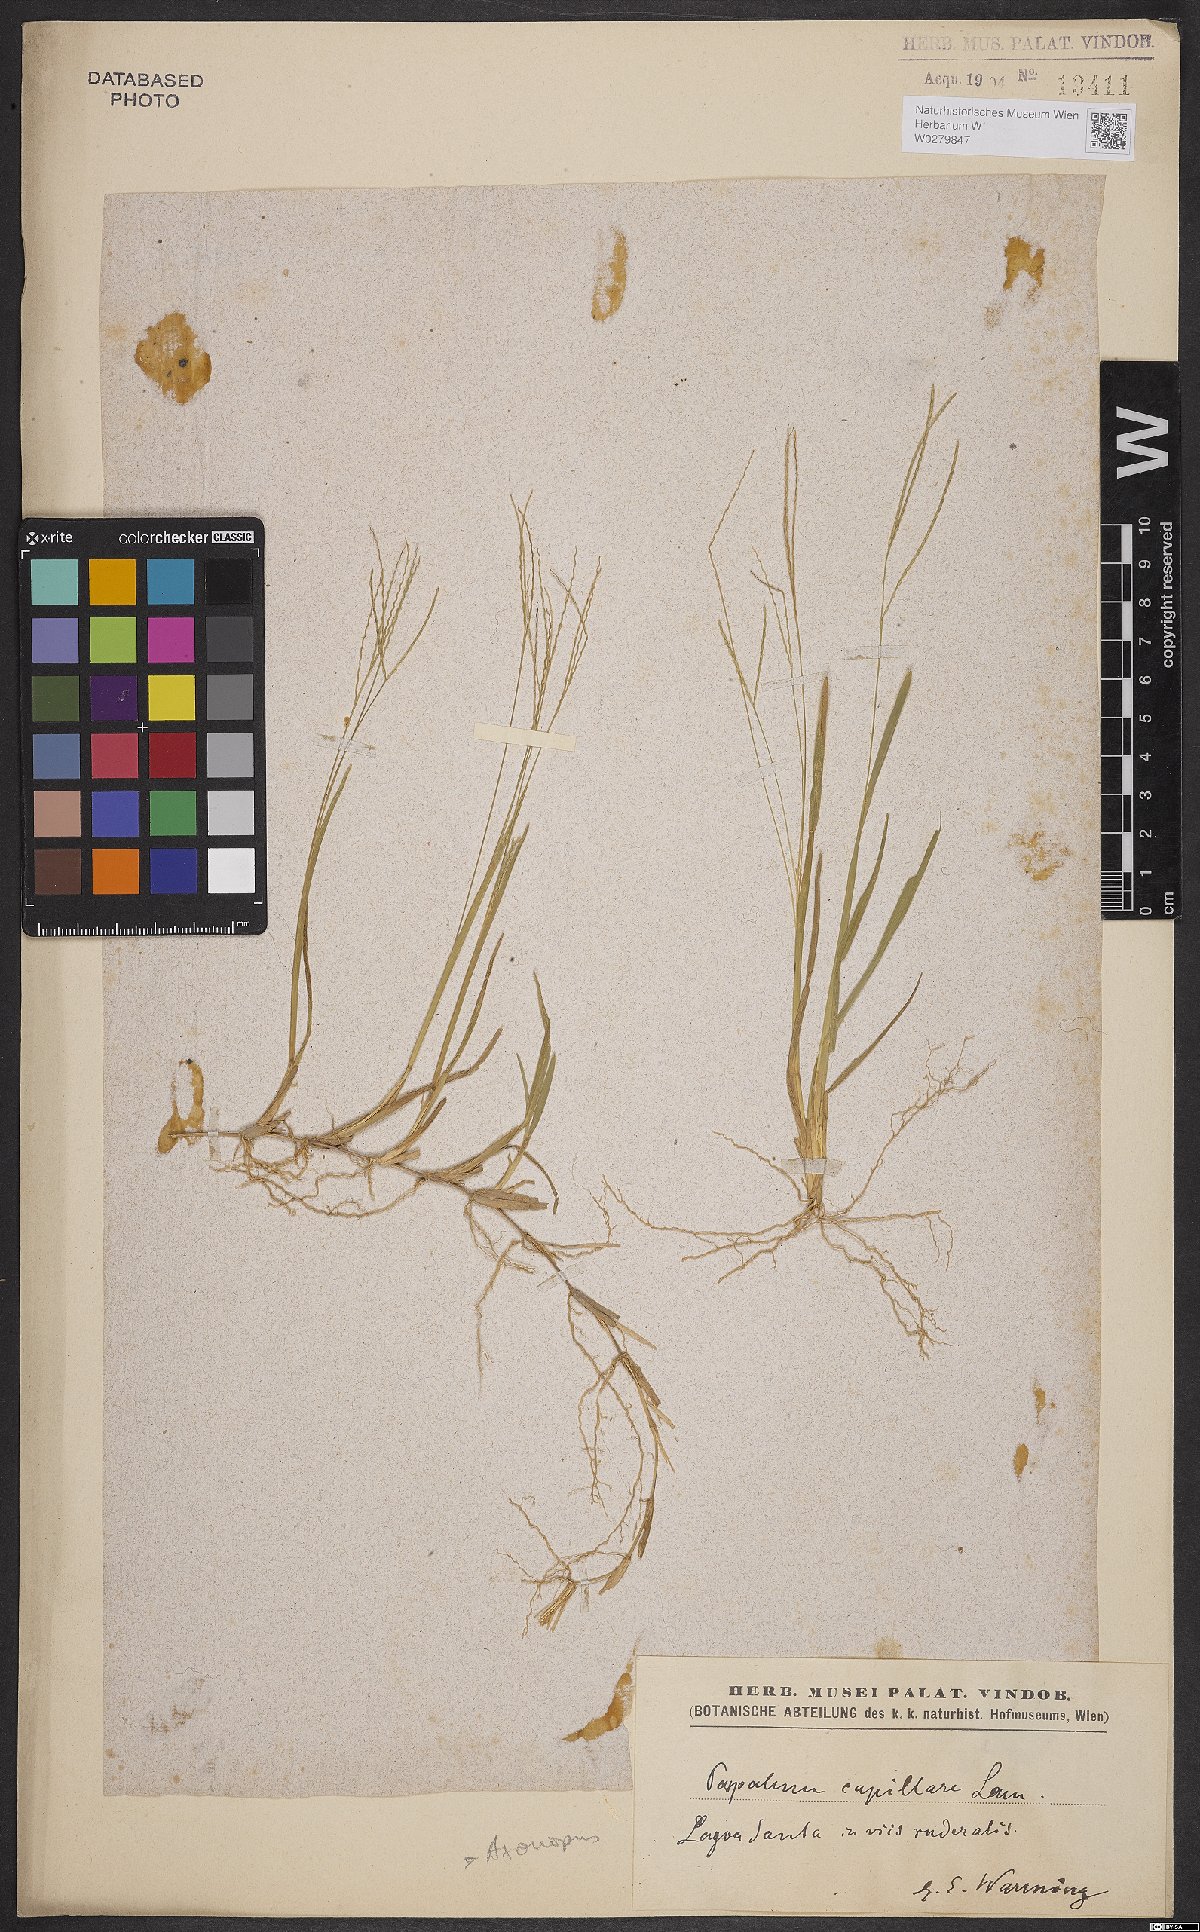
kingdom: Plantae
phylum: Tracheophyta
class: Liliopsida
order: Poales
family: Poaceae
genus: Axonopus
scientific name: Axonopus capillaris
